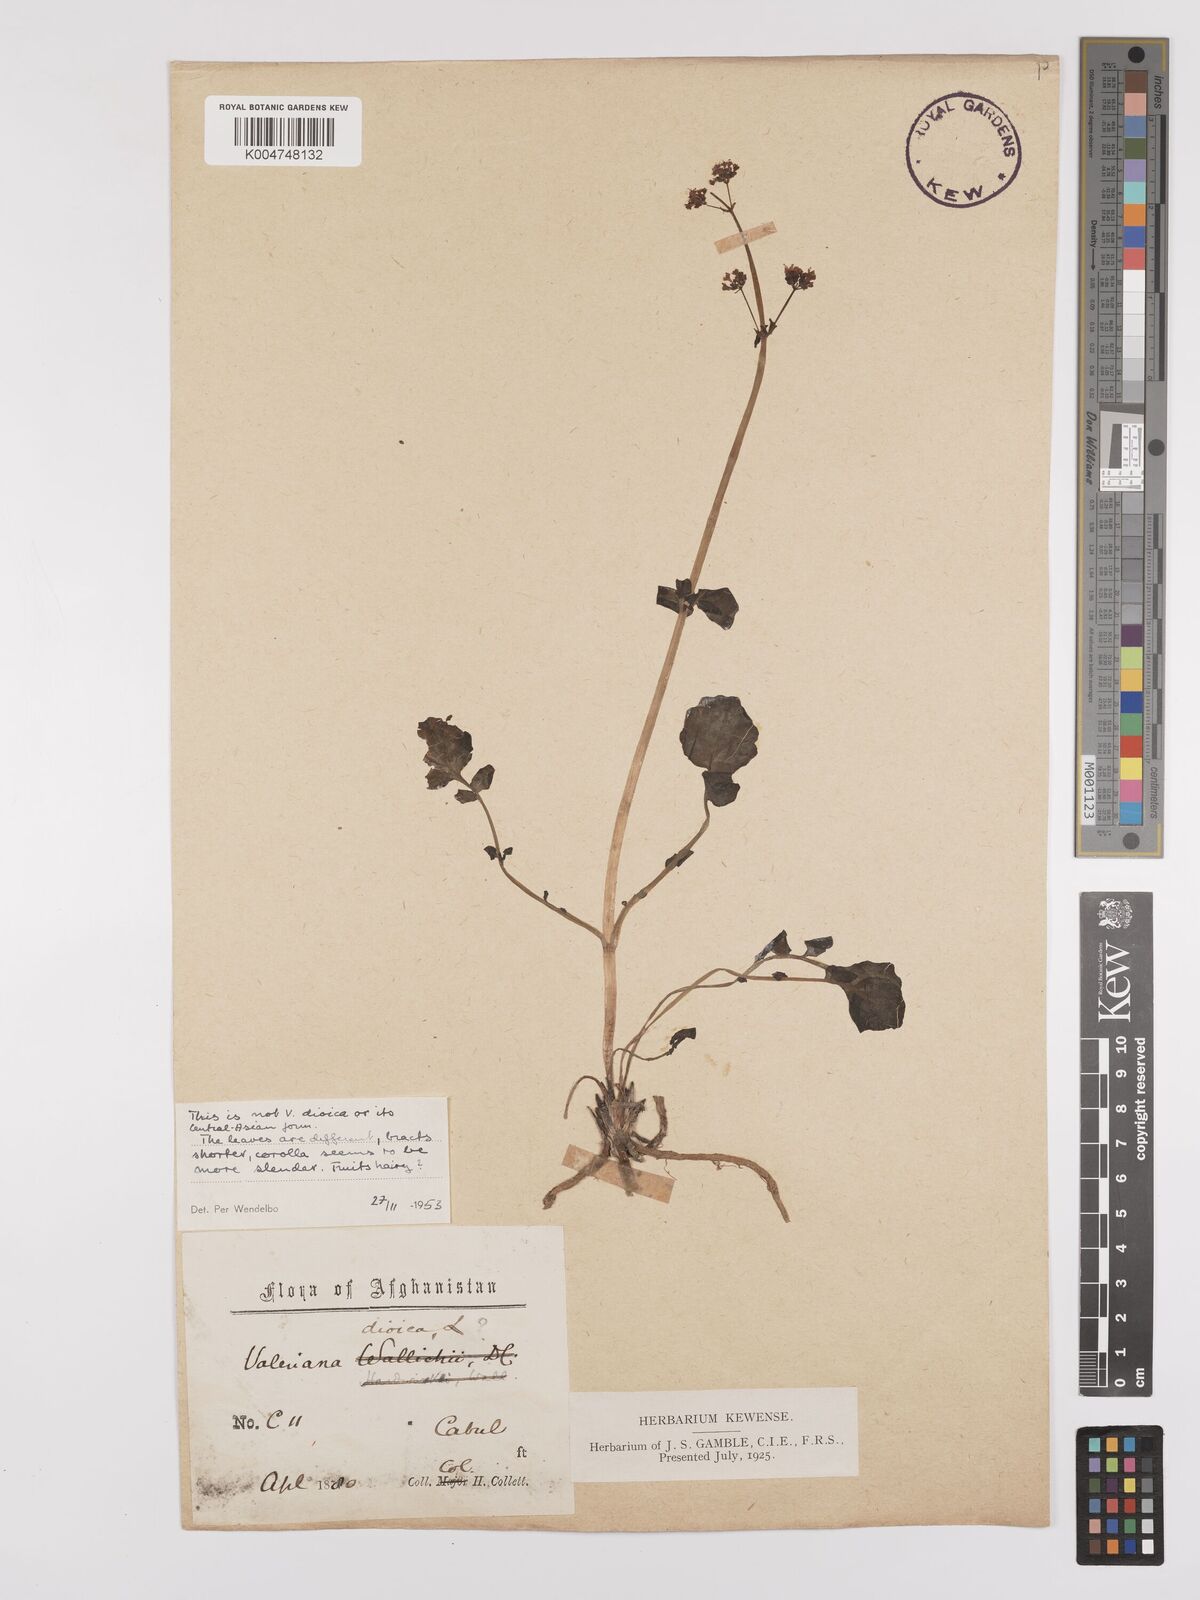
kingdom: Plantae
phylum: Tracheophyta
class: Magnoliopsida
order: Dipsacales
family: Caprifoliaceae
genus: Valeriana
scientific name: Valeriana
